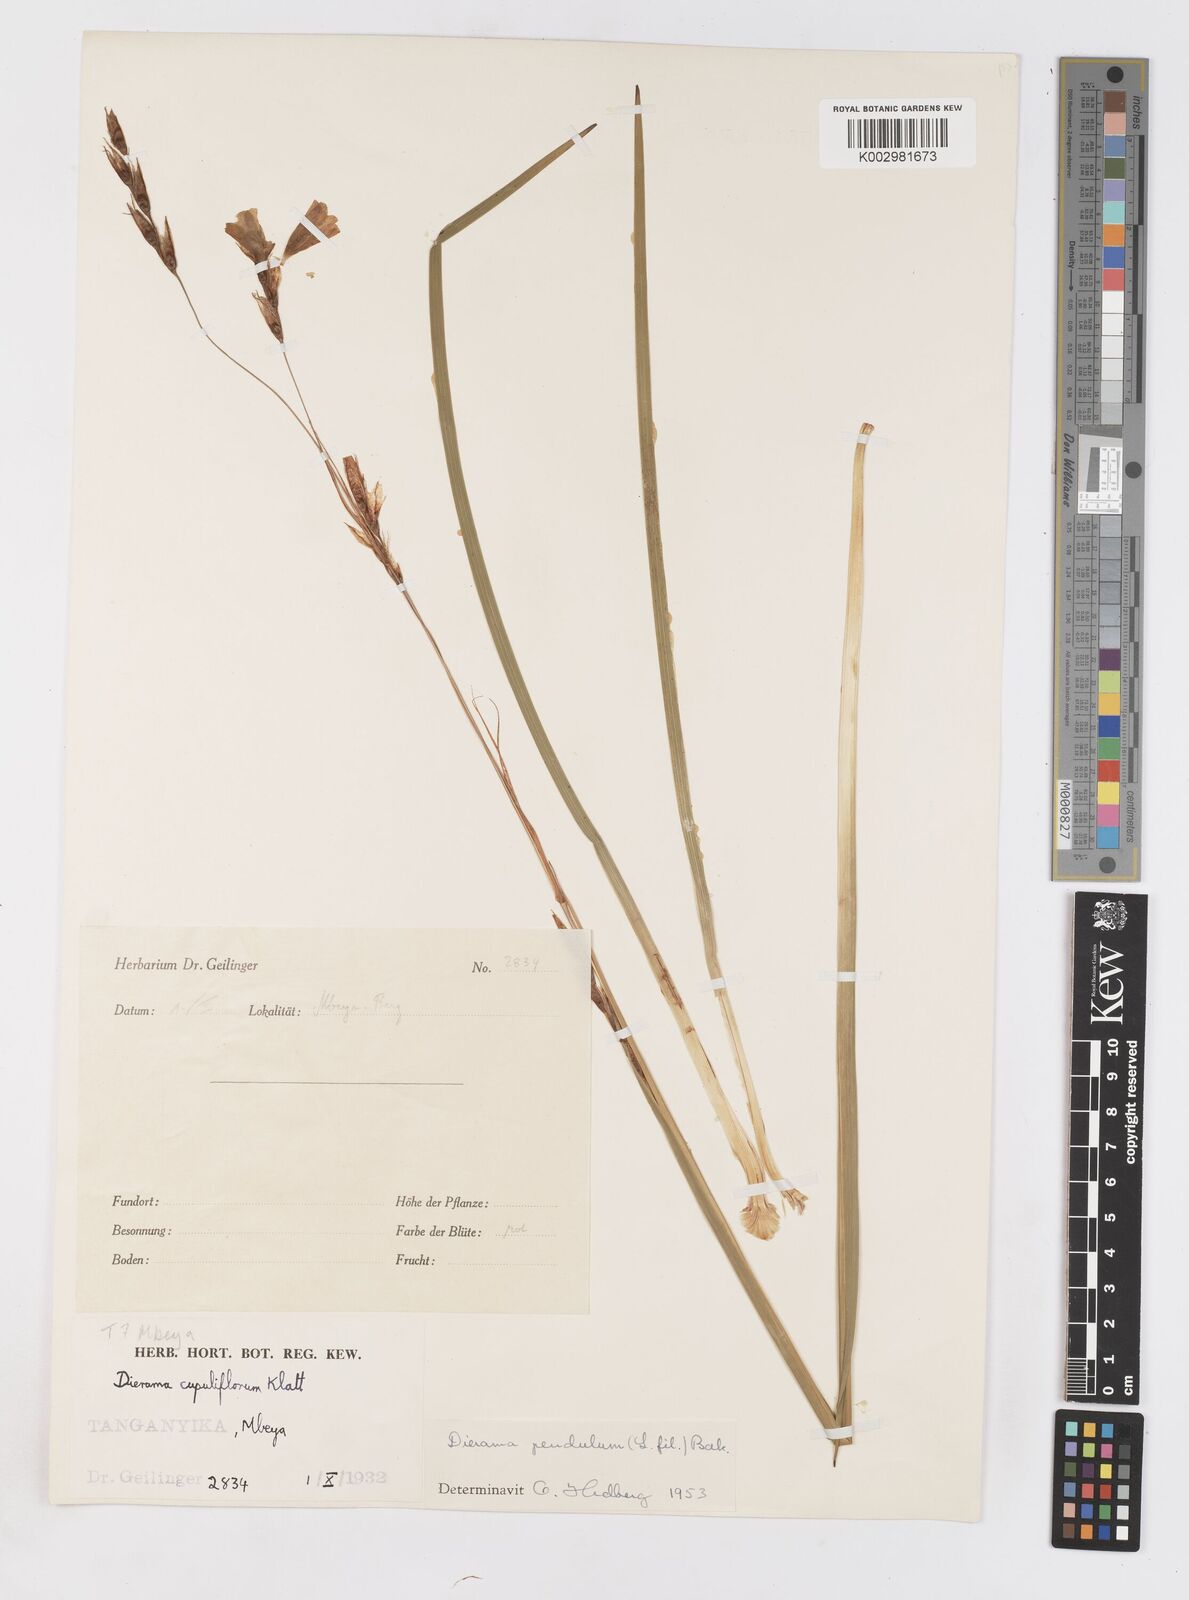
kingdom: Plantae
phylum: Tracheophyta
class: Liliopsida
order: Asparagales
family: Iridaceae
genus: Dierama
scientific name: Dierama longistylum
